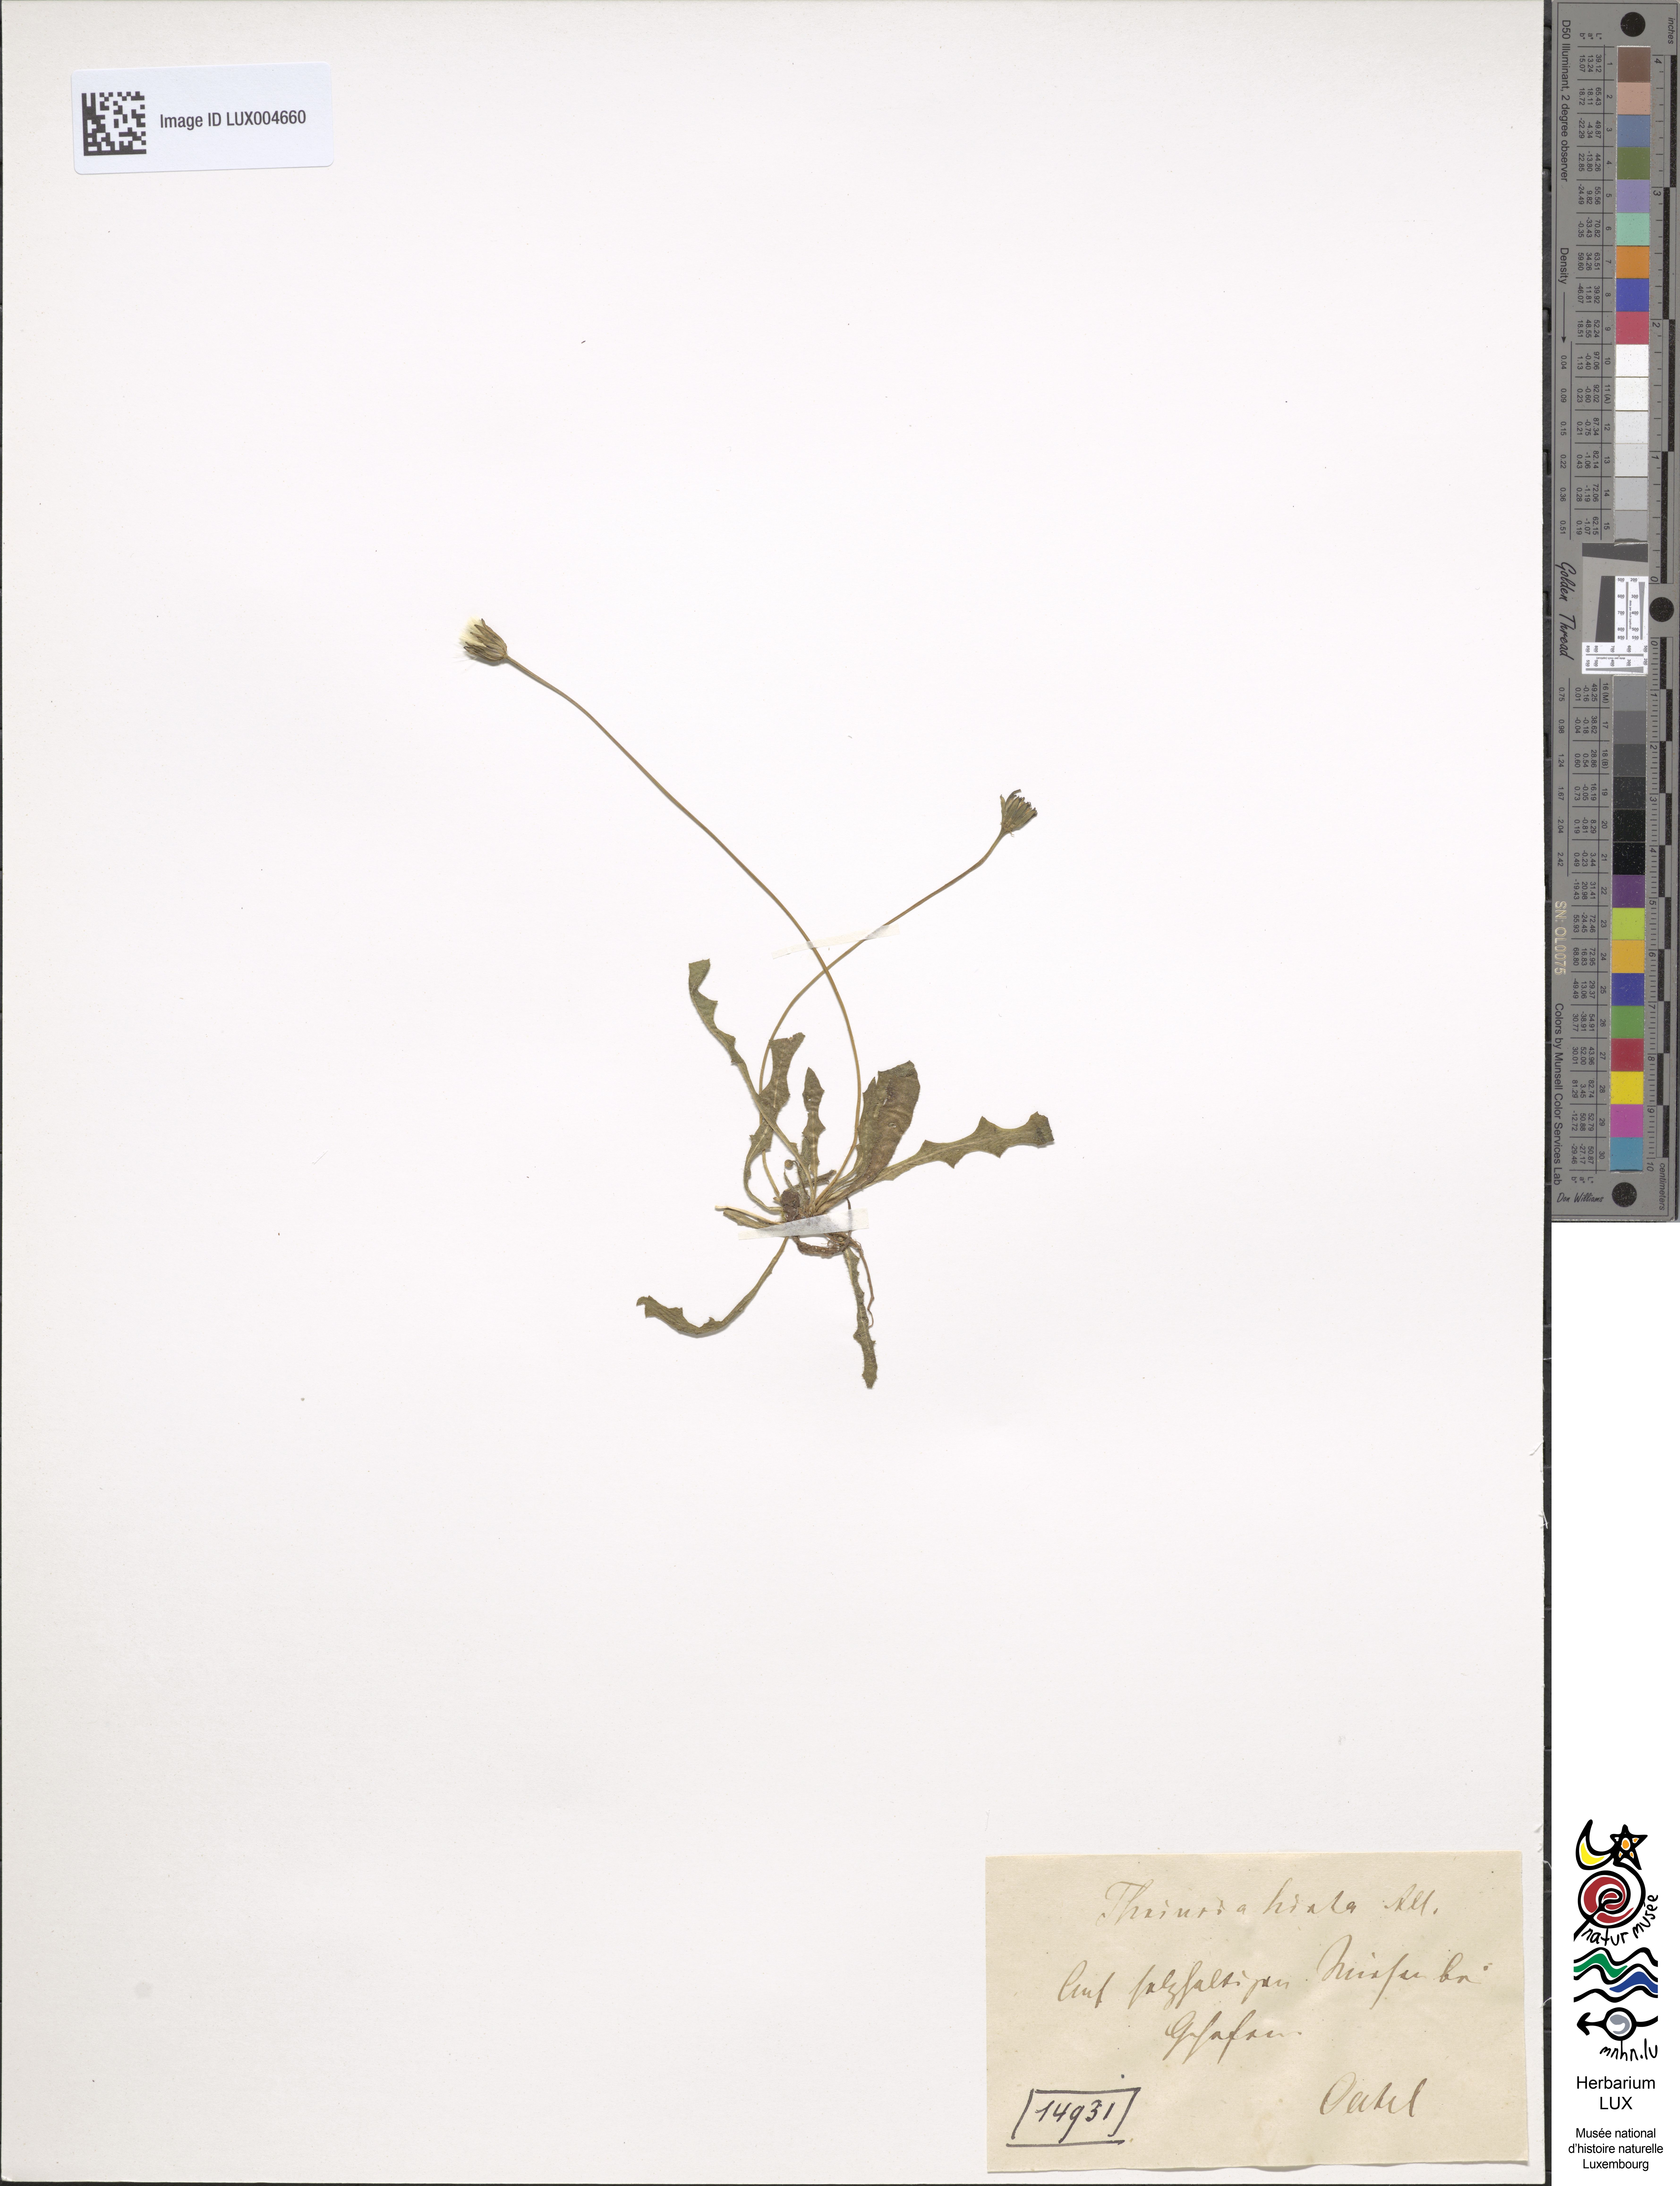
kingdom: Plantae
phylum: Tracheophyta
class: Magnoliopsida
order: Asterales
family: Asteraceae
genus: Leontodon
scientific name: Leontodon hirtus
